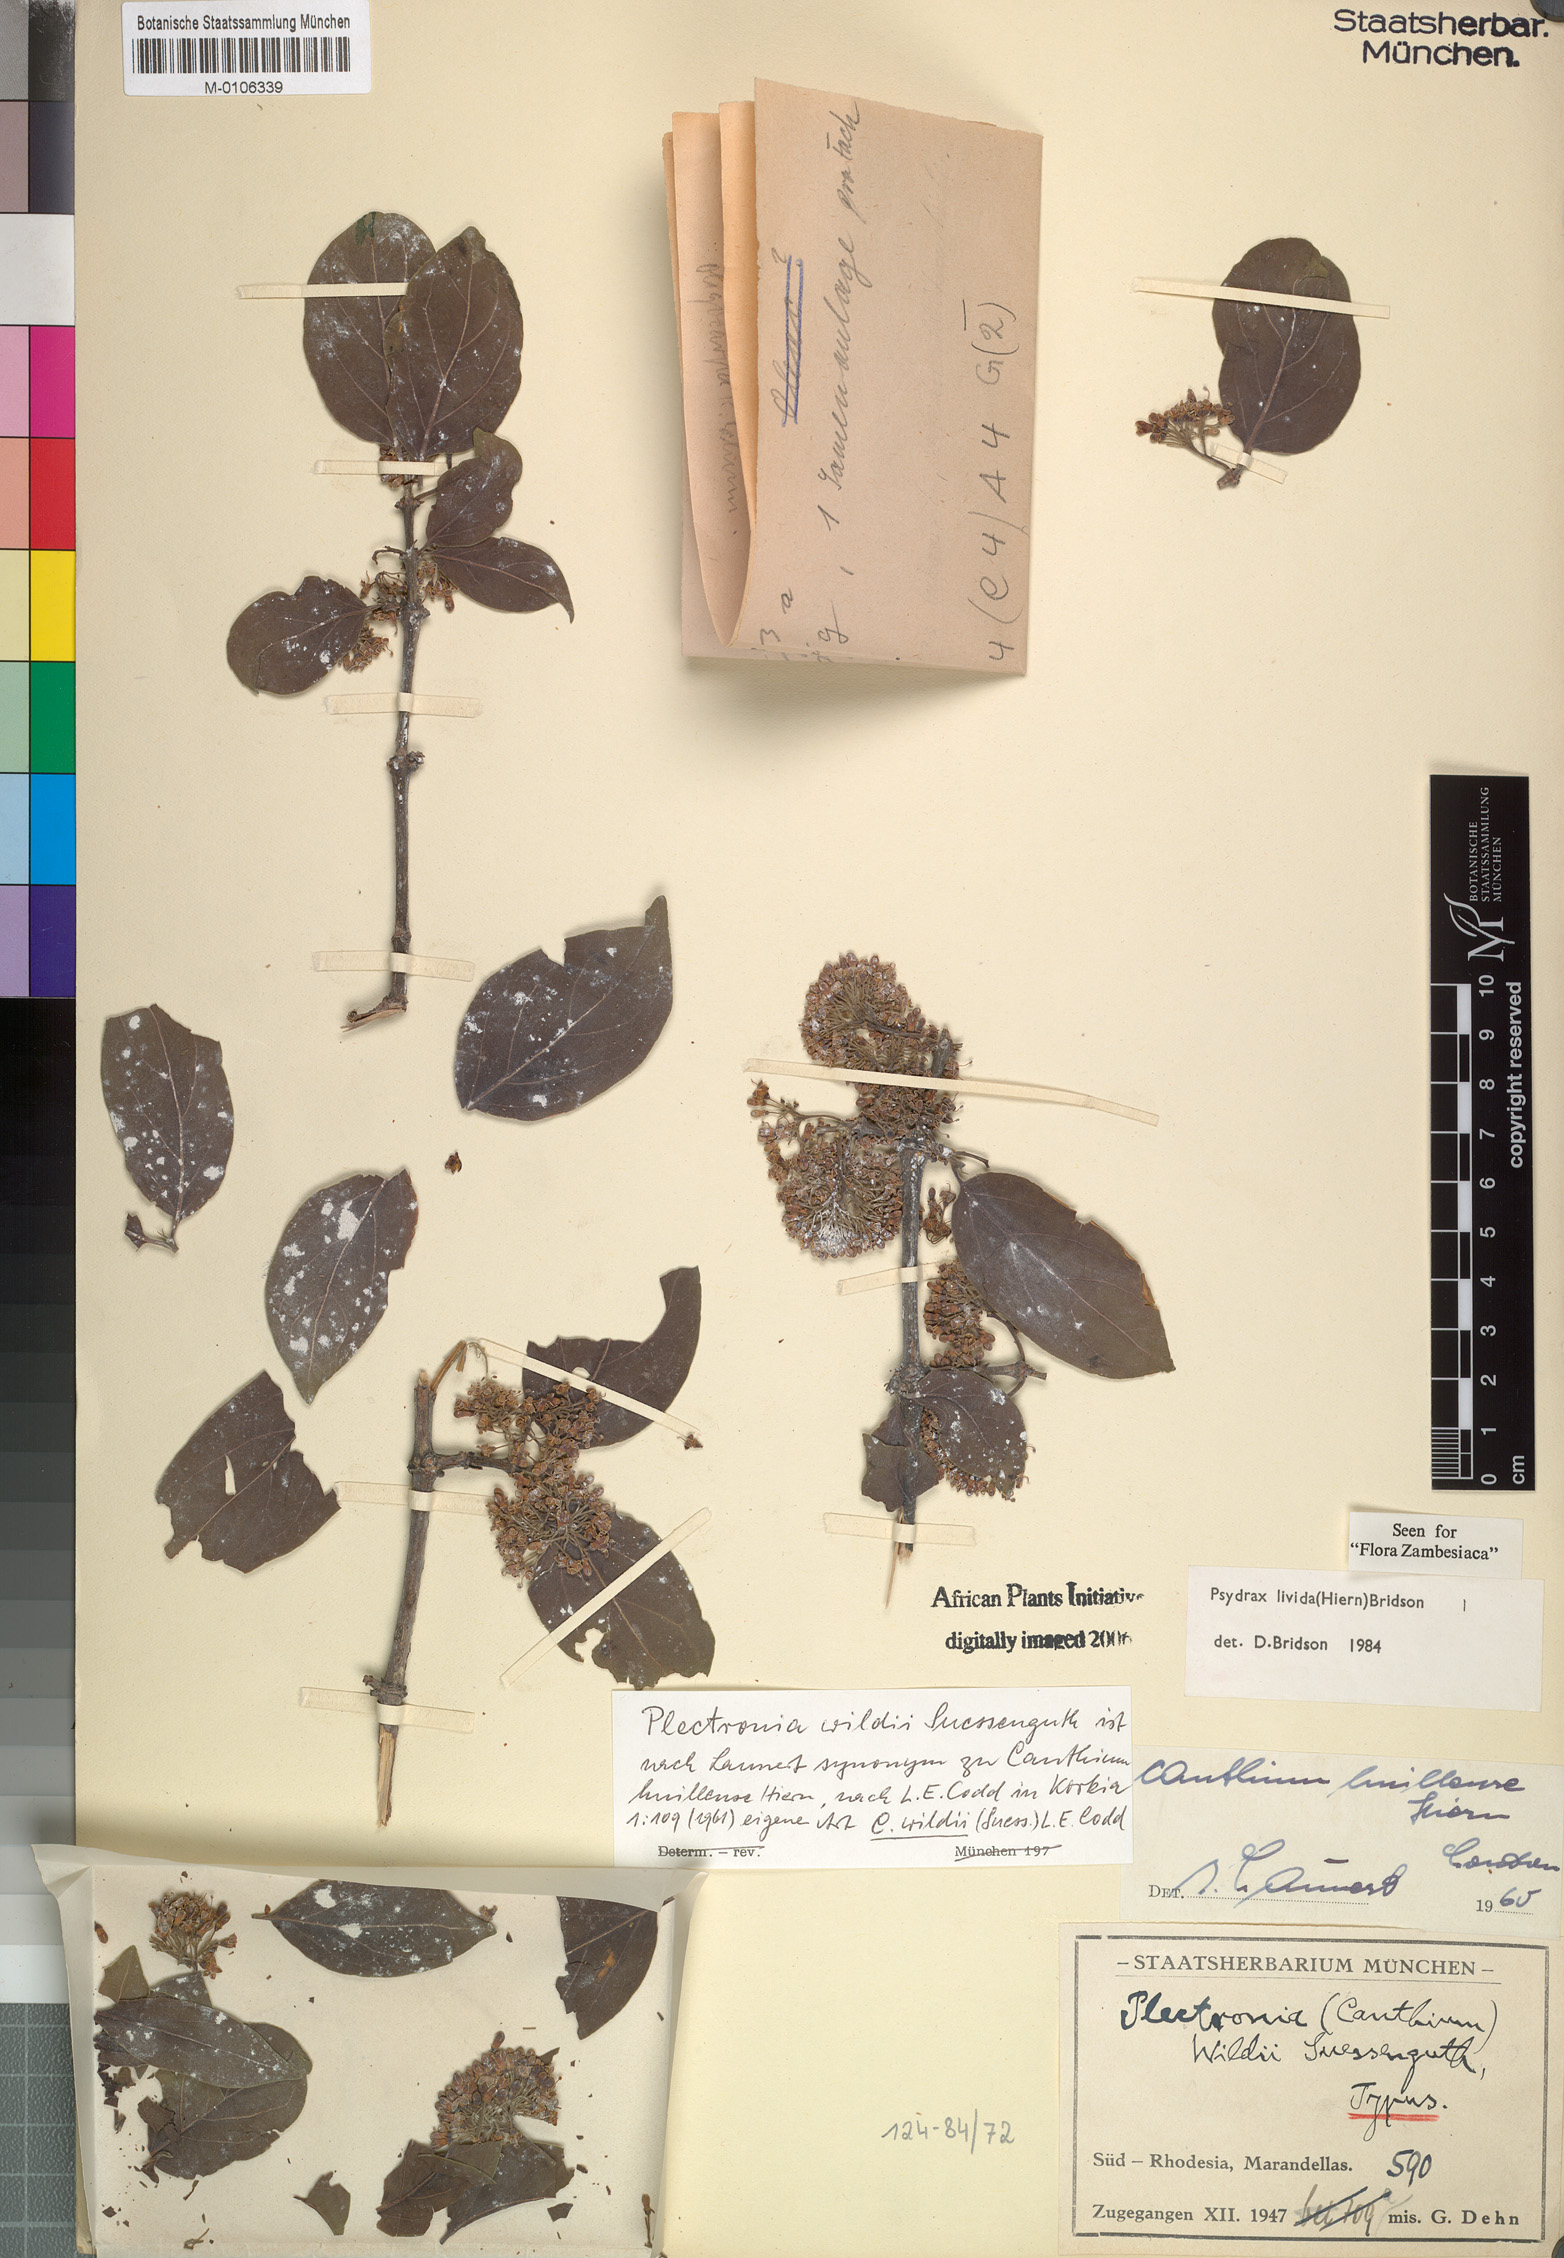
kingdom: Plantae
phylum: Tracheophyta
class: Magnoliopsida
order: Gentianales
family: Rubiaceae
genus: Psydrax
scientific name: Psydrax lividus
